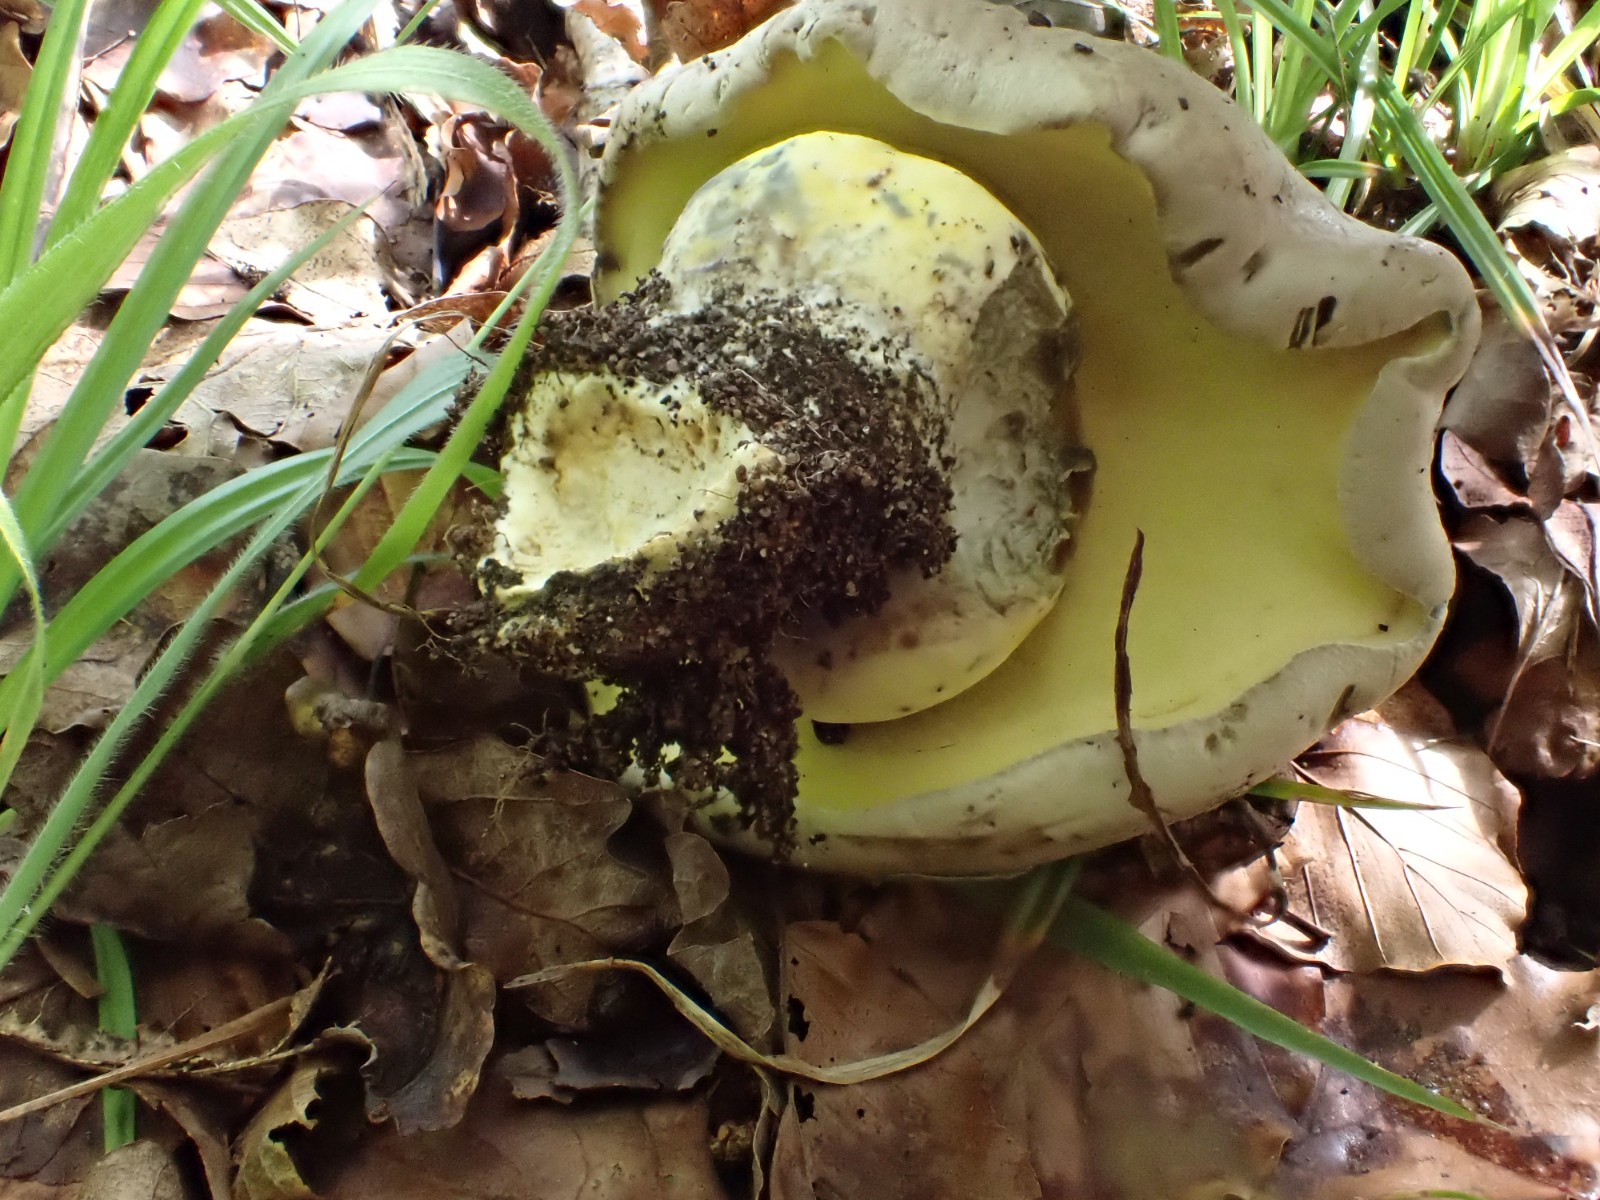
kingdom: Fungi
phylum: Basidiomycota
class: Agaricomycetes
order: Boletales
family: Boletaceae
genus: Caloboletus
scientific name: Caloboletus radicans
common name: rod-rørhat
